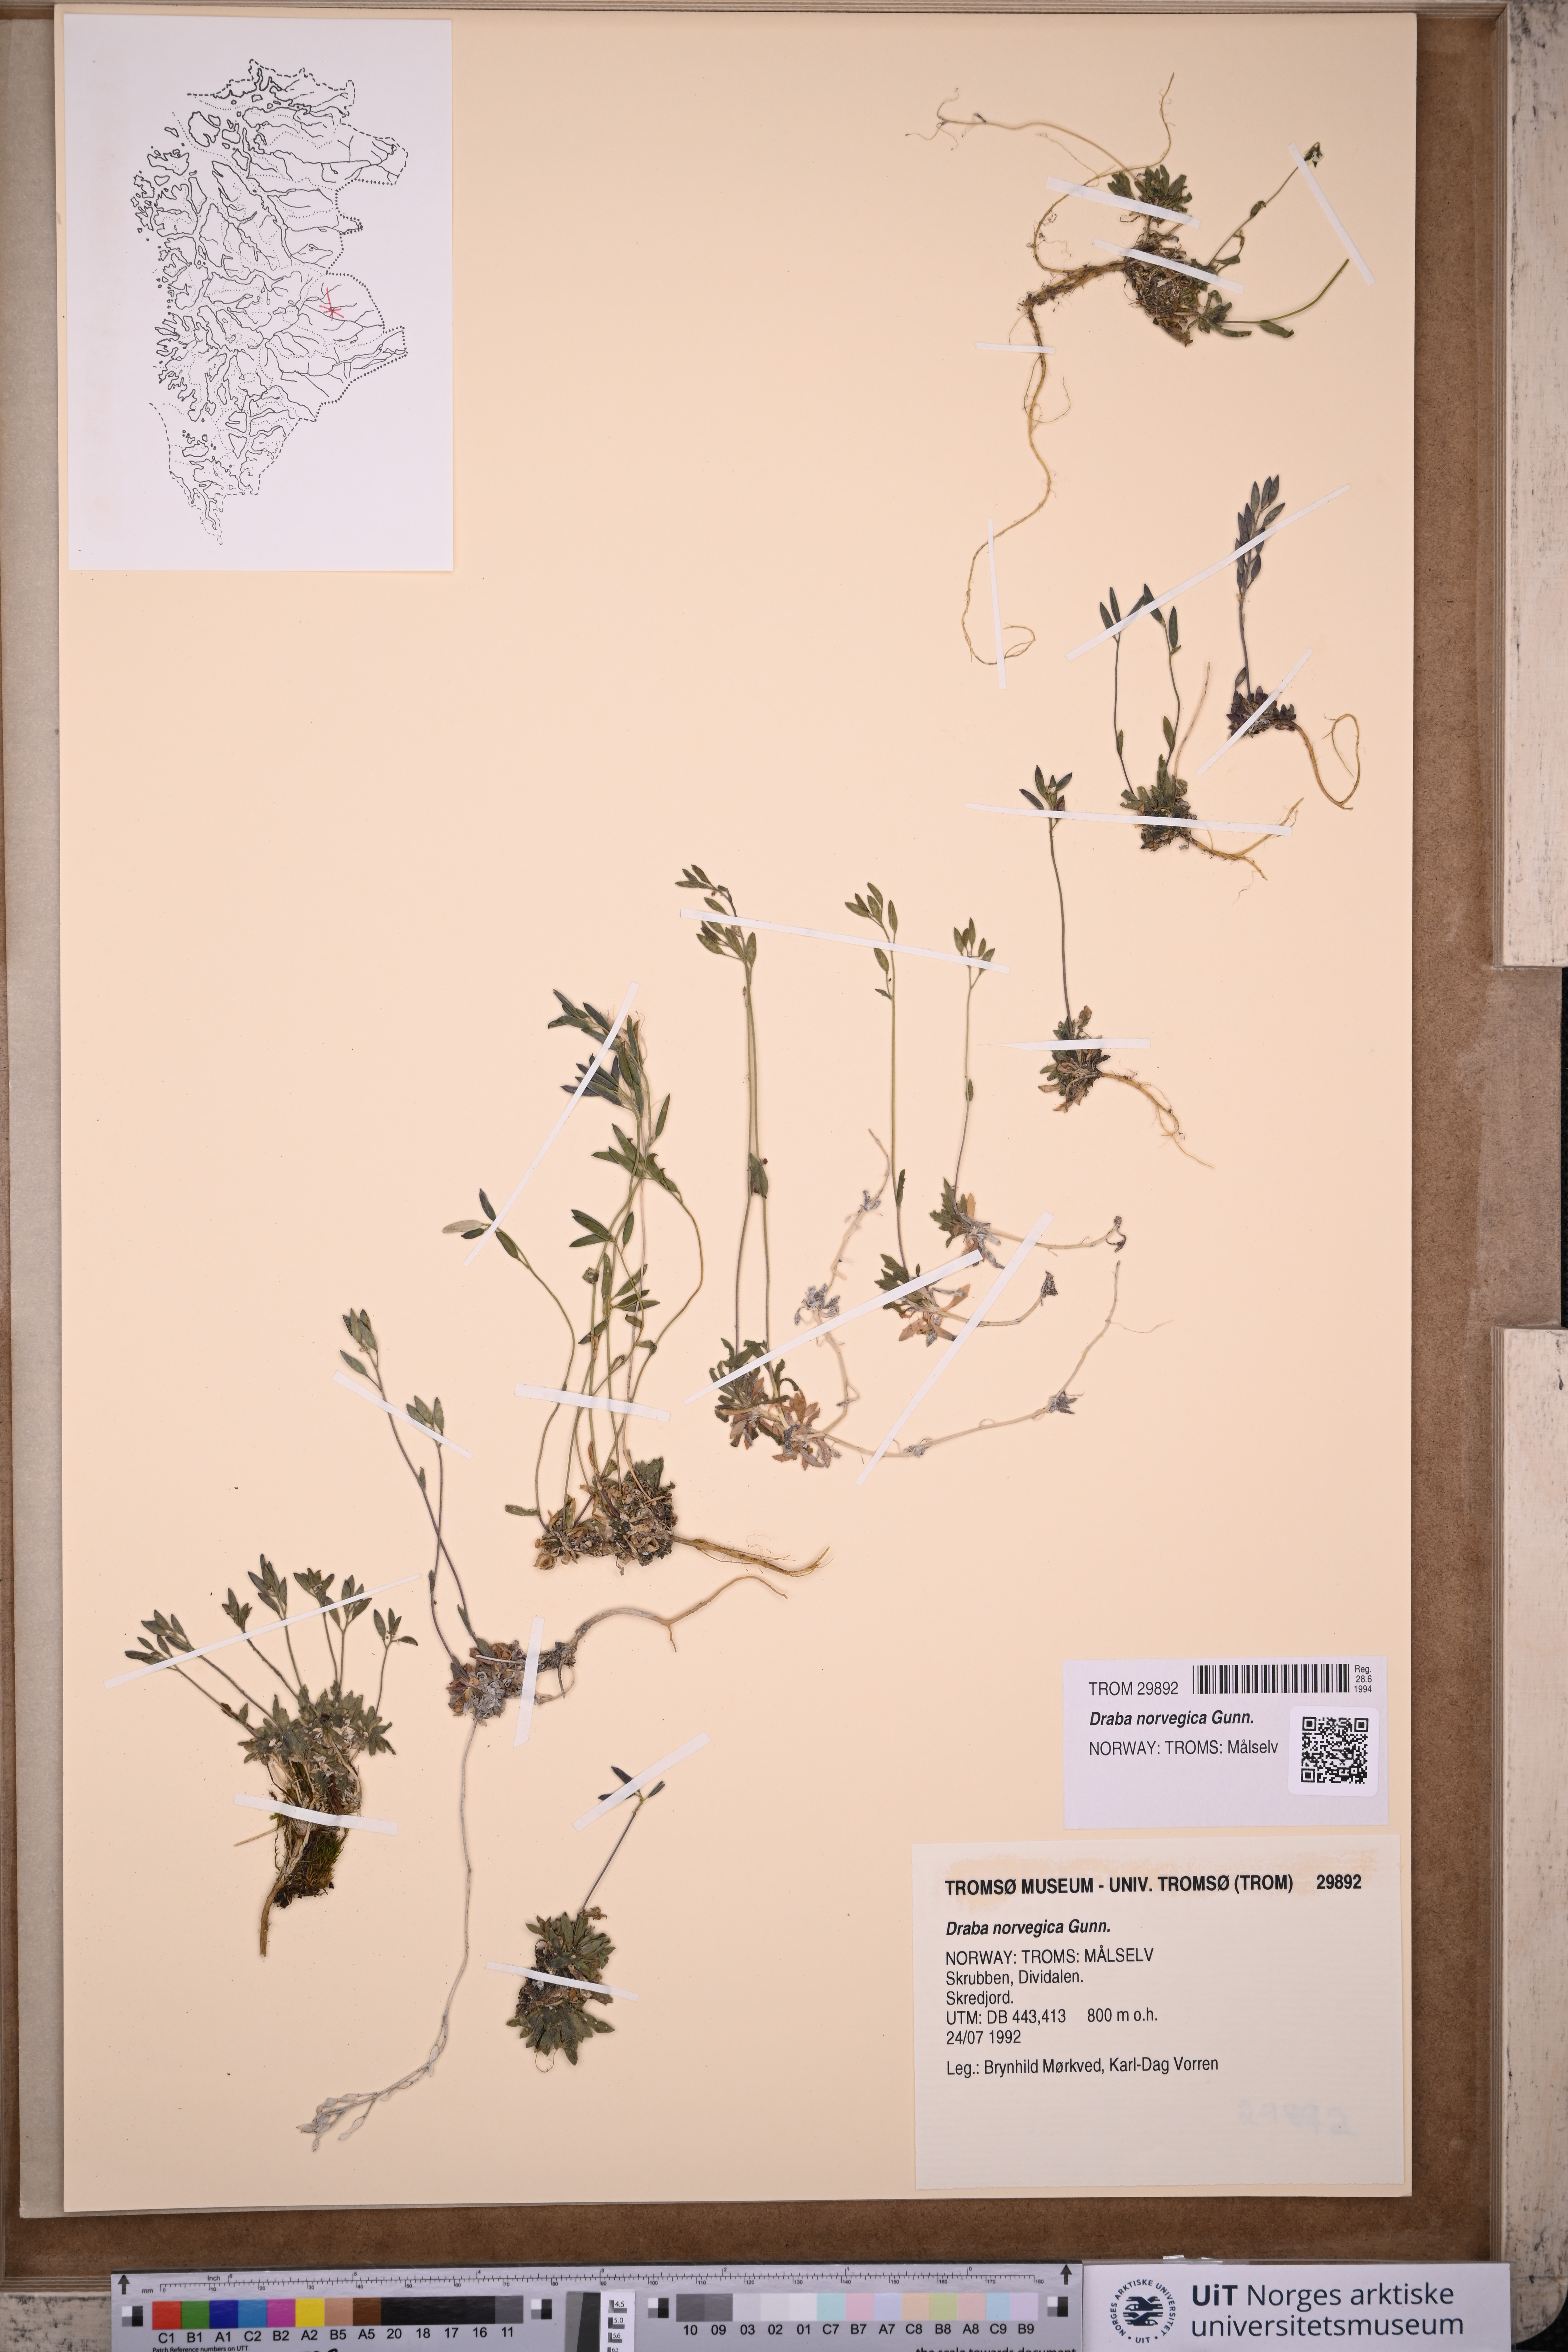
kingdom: Plantae
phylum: Tracheophyta
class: Magnoliopsida
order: Brassicales
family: Brassicaceae
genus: Draba
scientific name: Draba norvegica
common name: Rock whitlowgrass
